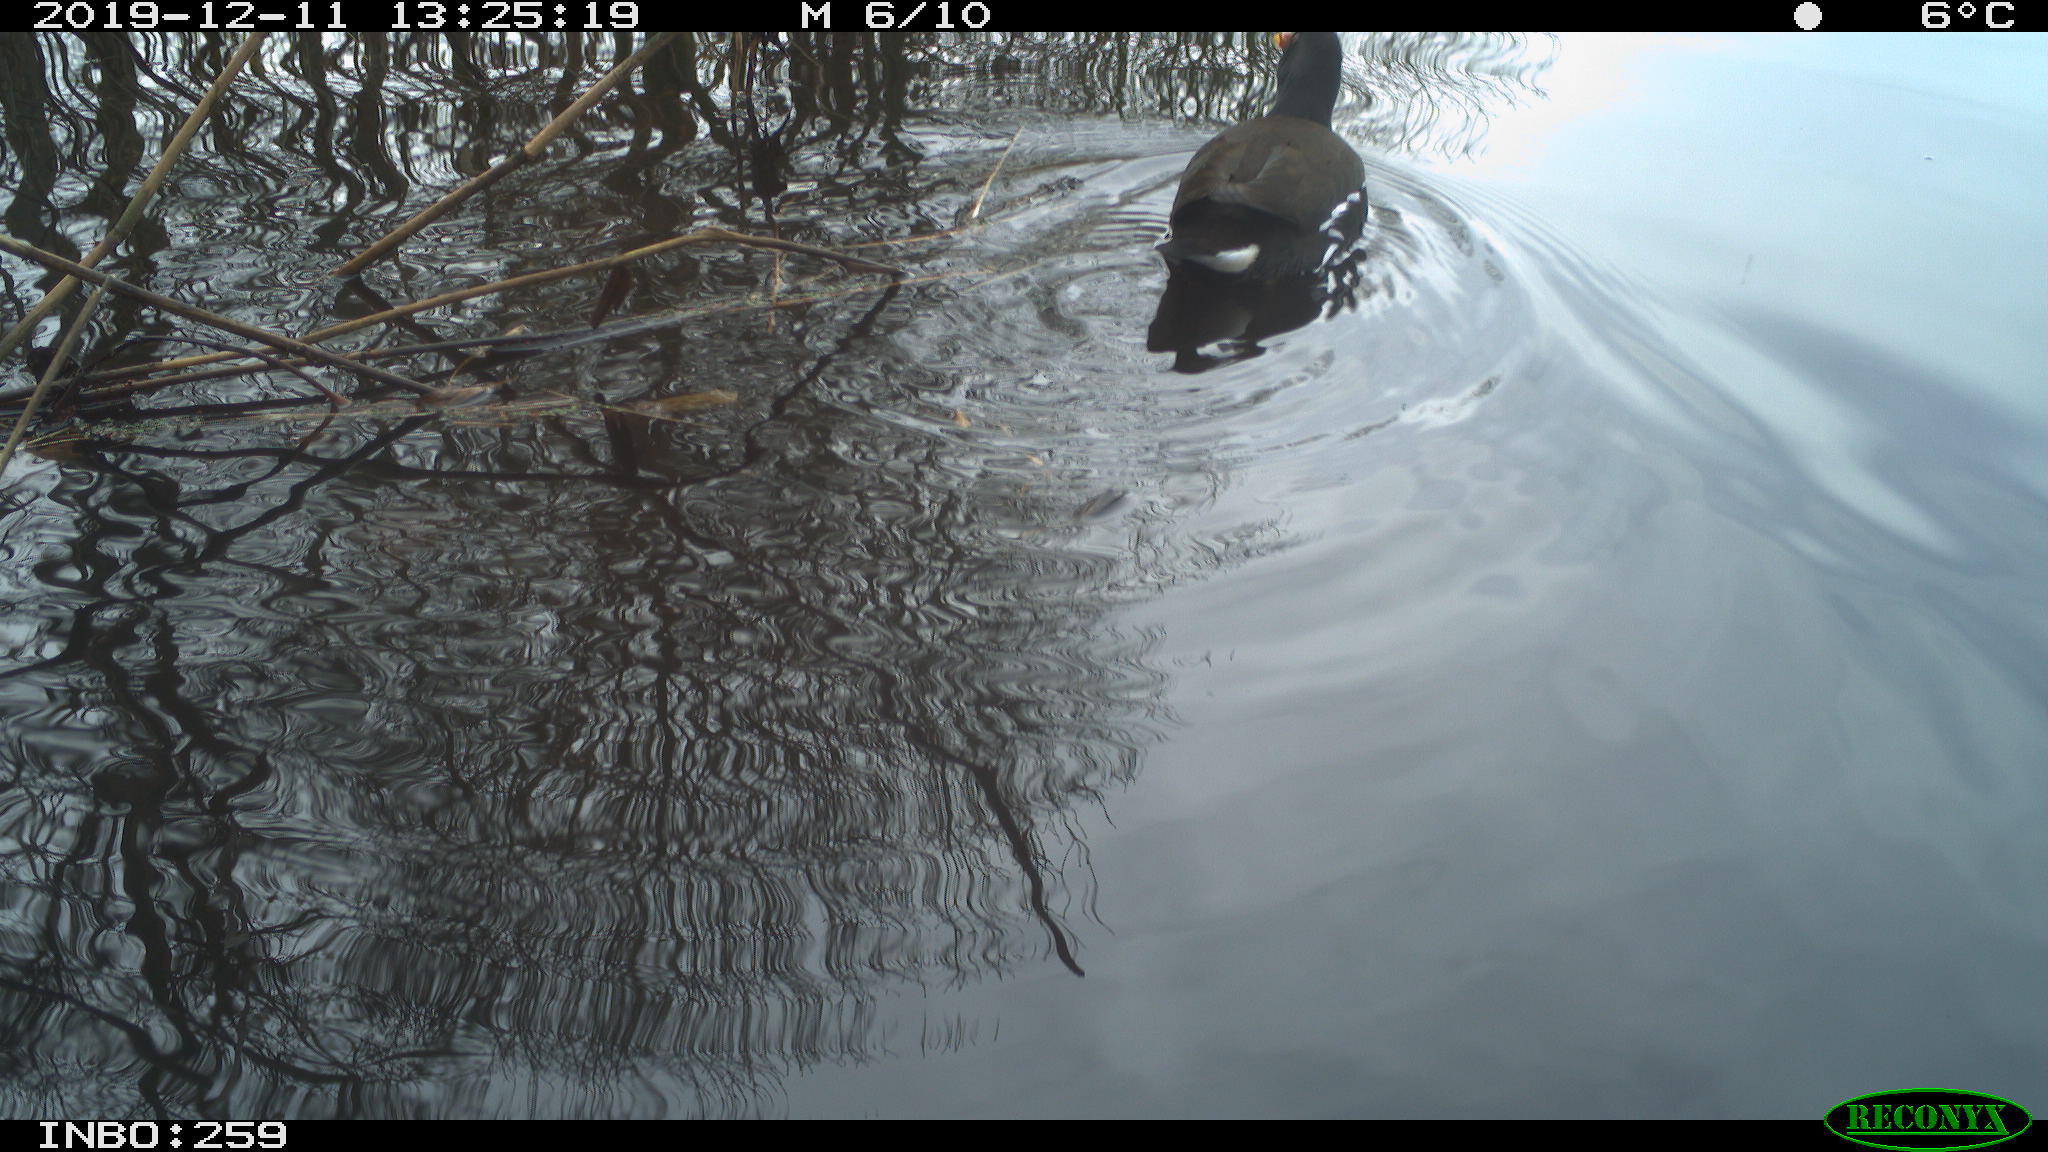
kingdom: Animalia
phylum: Chordata
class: Aves
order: Gruiformes
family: Rallidae
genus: Gallinula
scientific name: Gallinula chloropus
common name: Common moorhen
